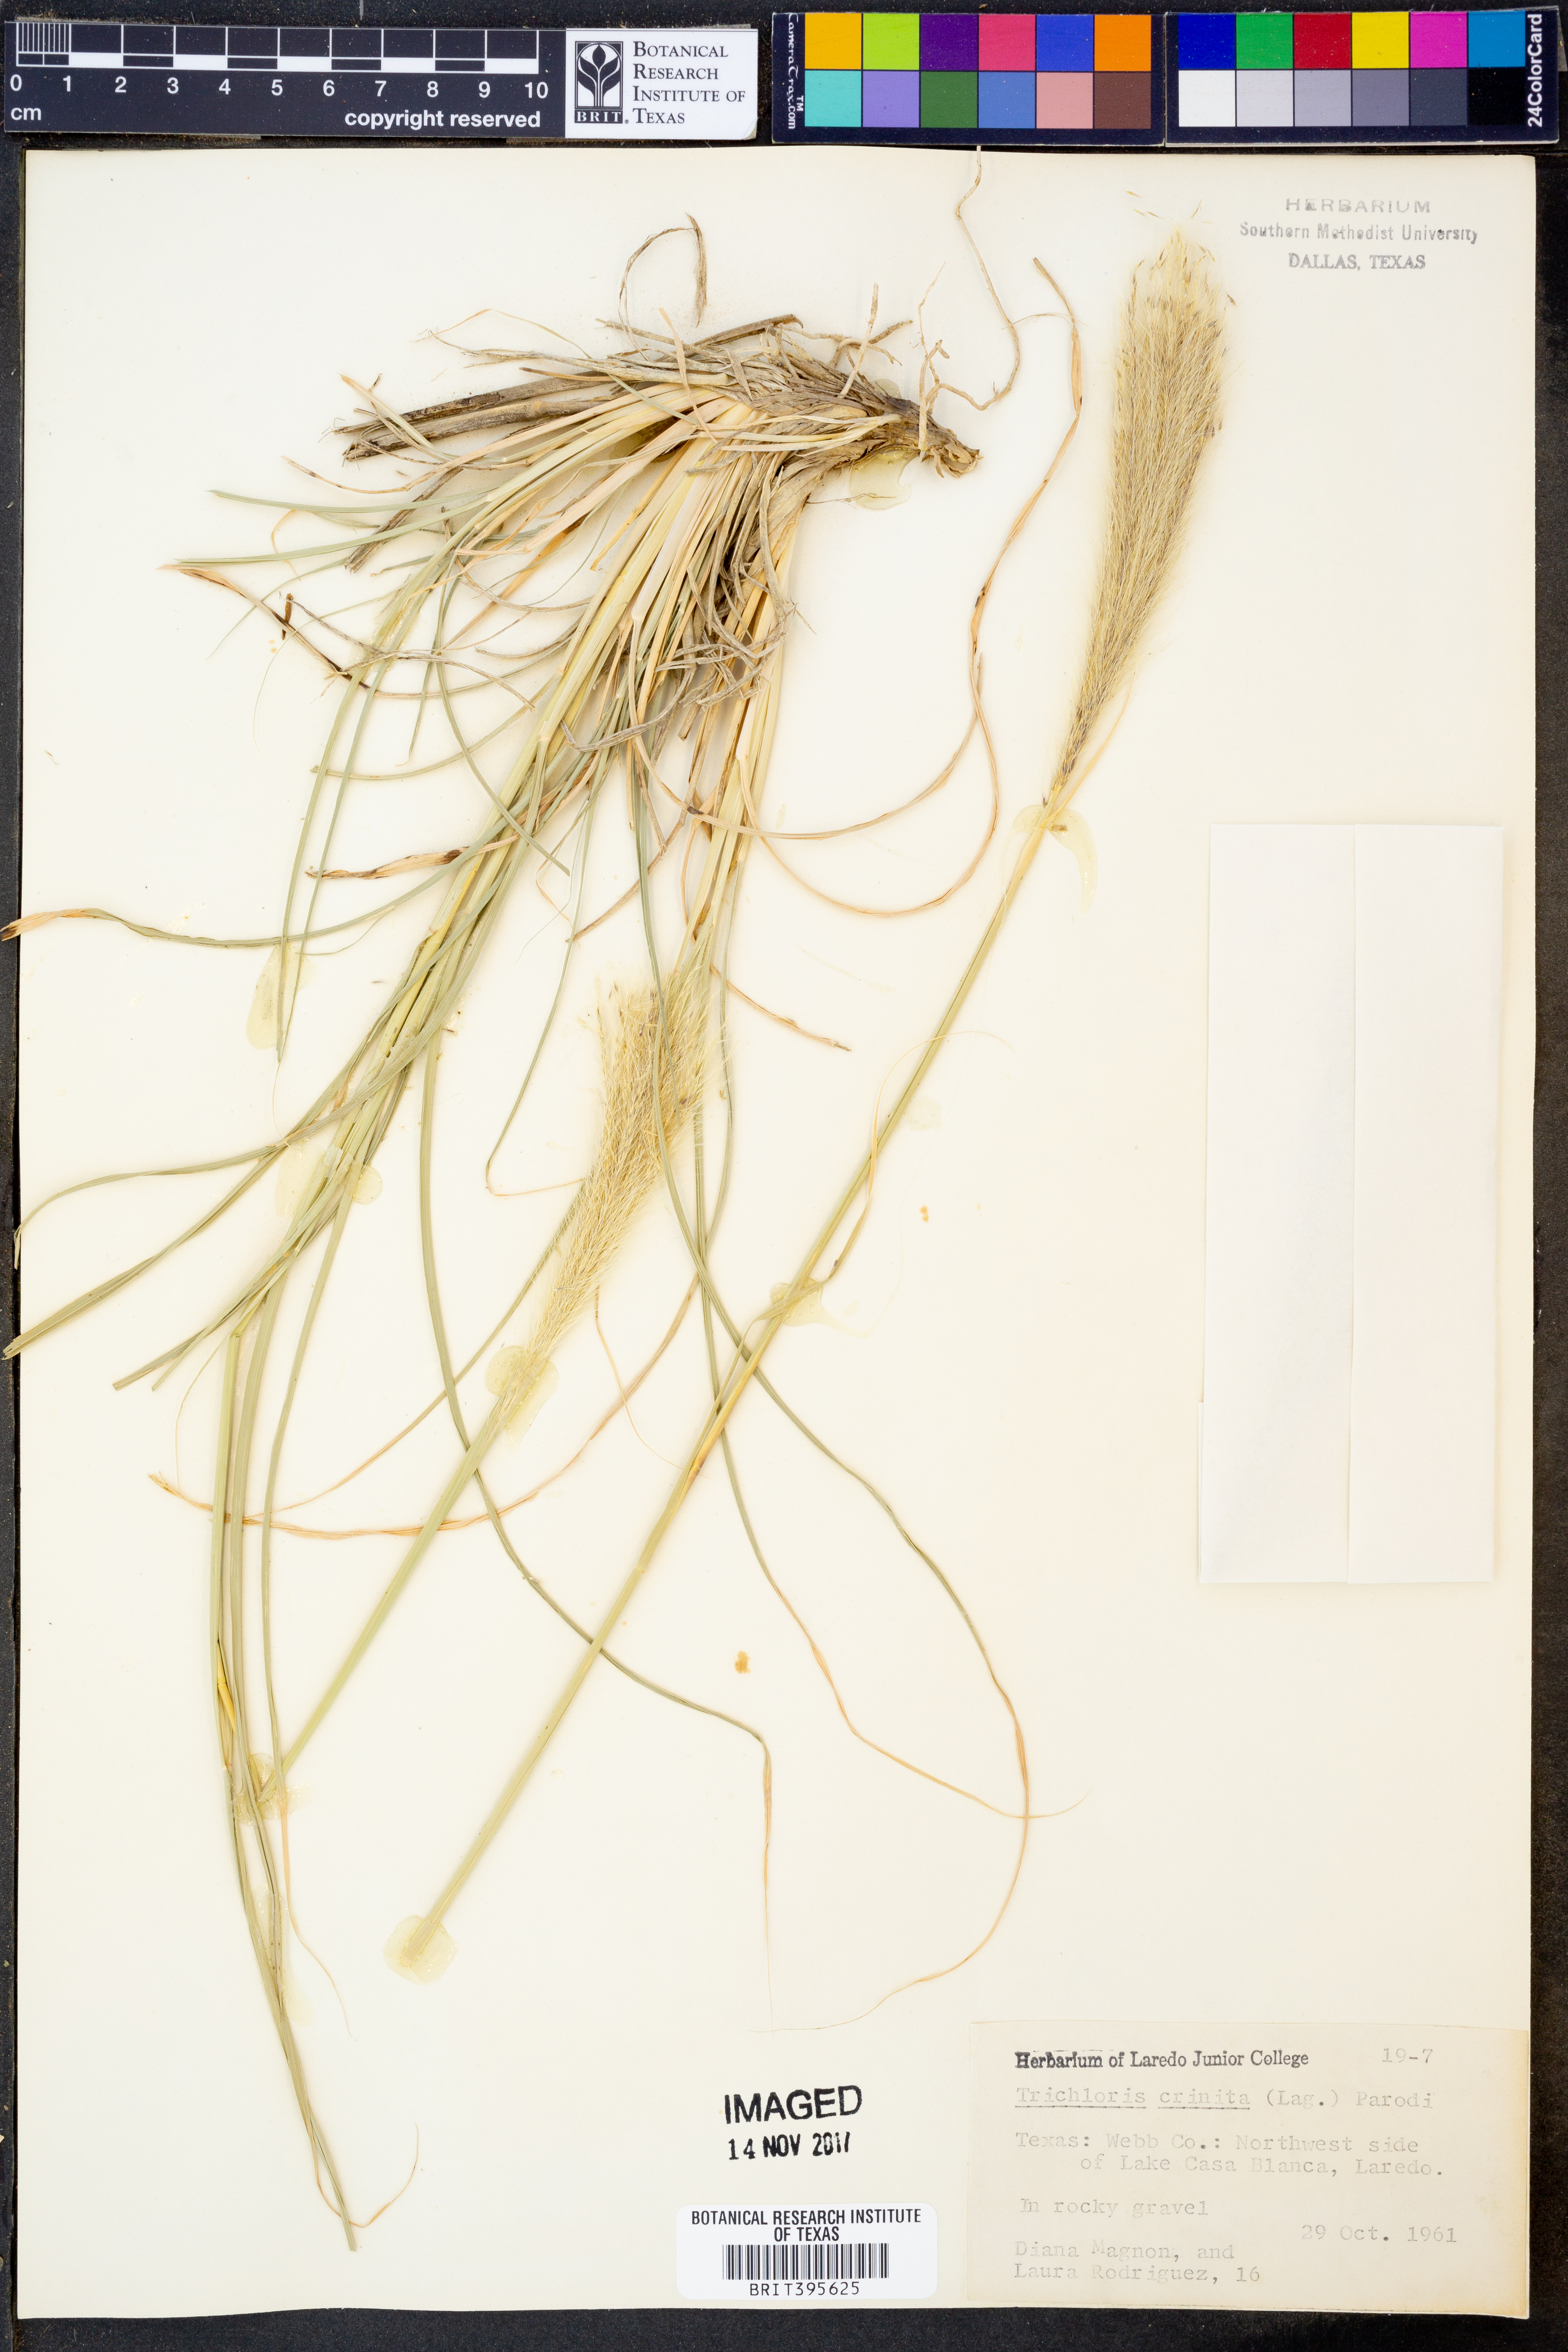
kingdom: Plantae
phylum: Tracheophyta
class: Liliopsida
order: Poales
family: Poaceae
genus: Leptochloa
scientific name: Leptochloa crinita
